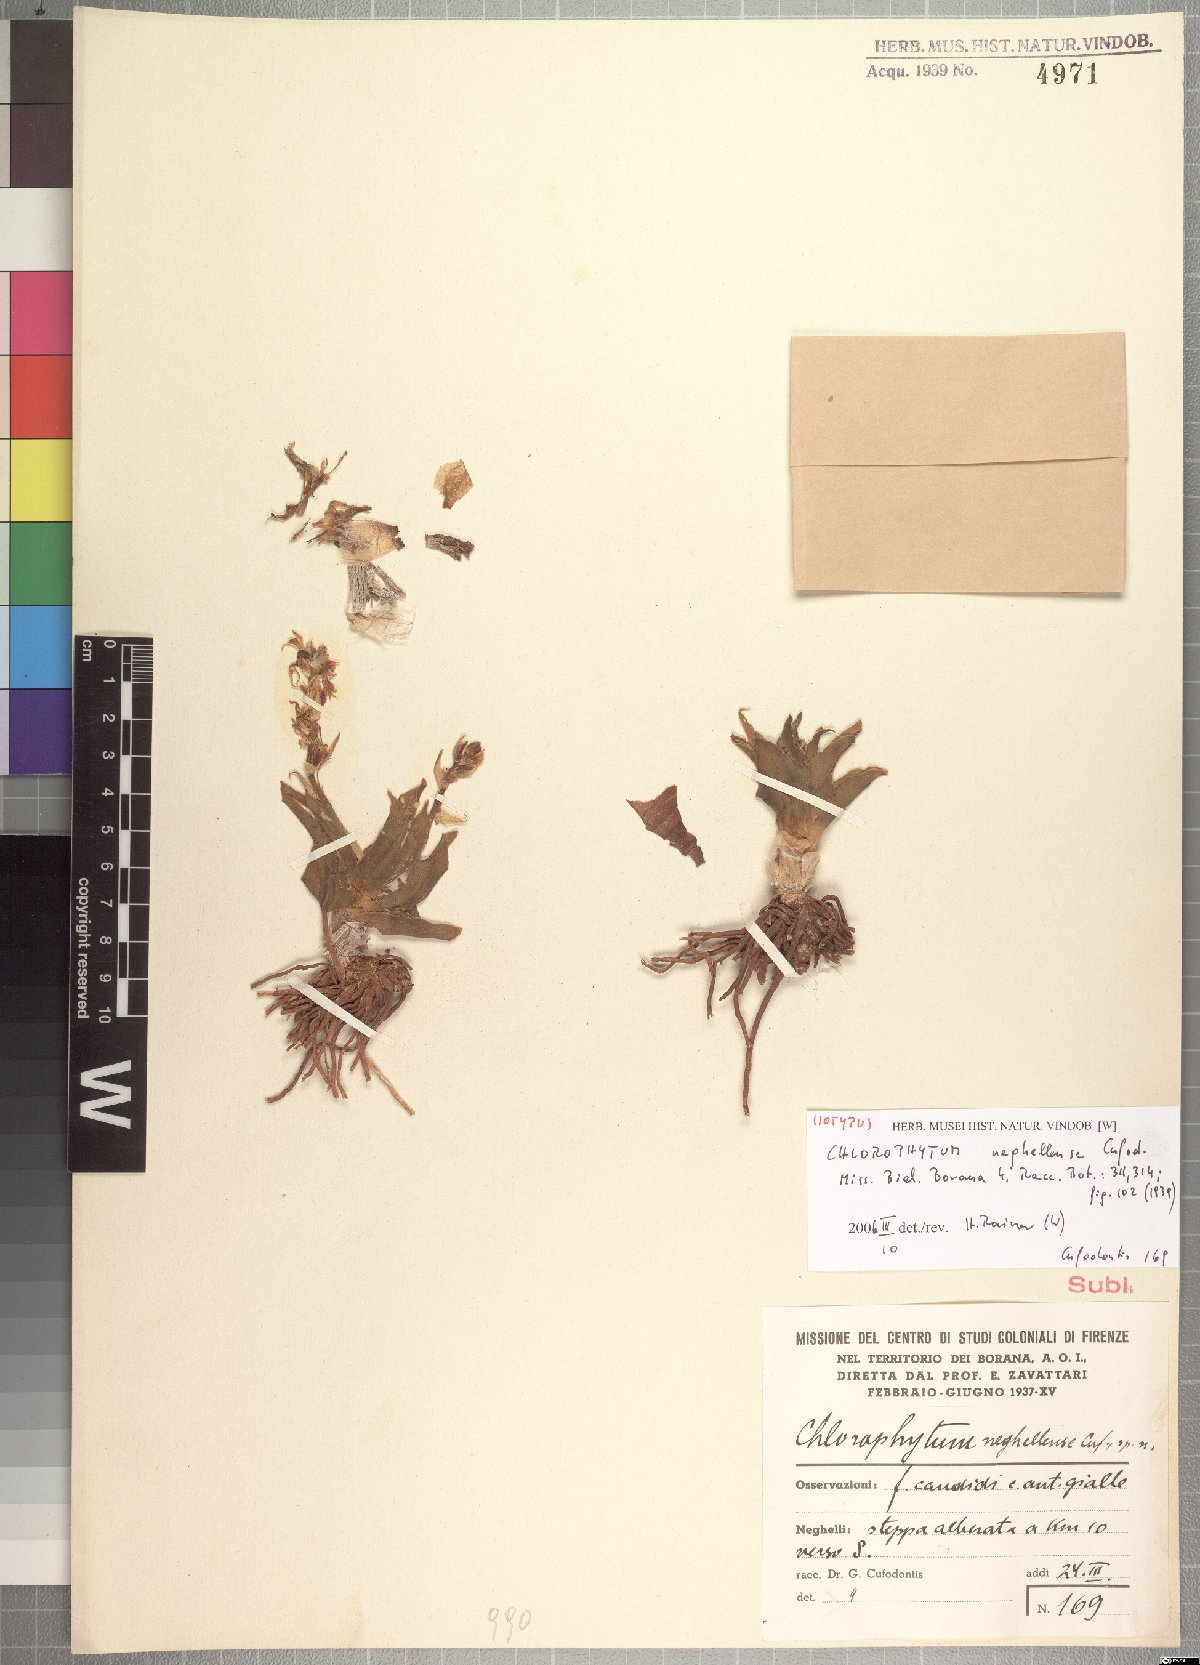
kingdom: Plantae
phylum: Tracheophyta
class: Liliopsida
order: Asparagales
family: Asparagaceae
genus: Anthericum
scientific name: Anthericum neghellense
